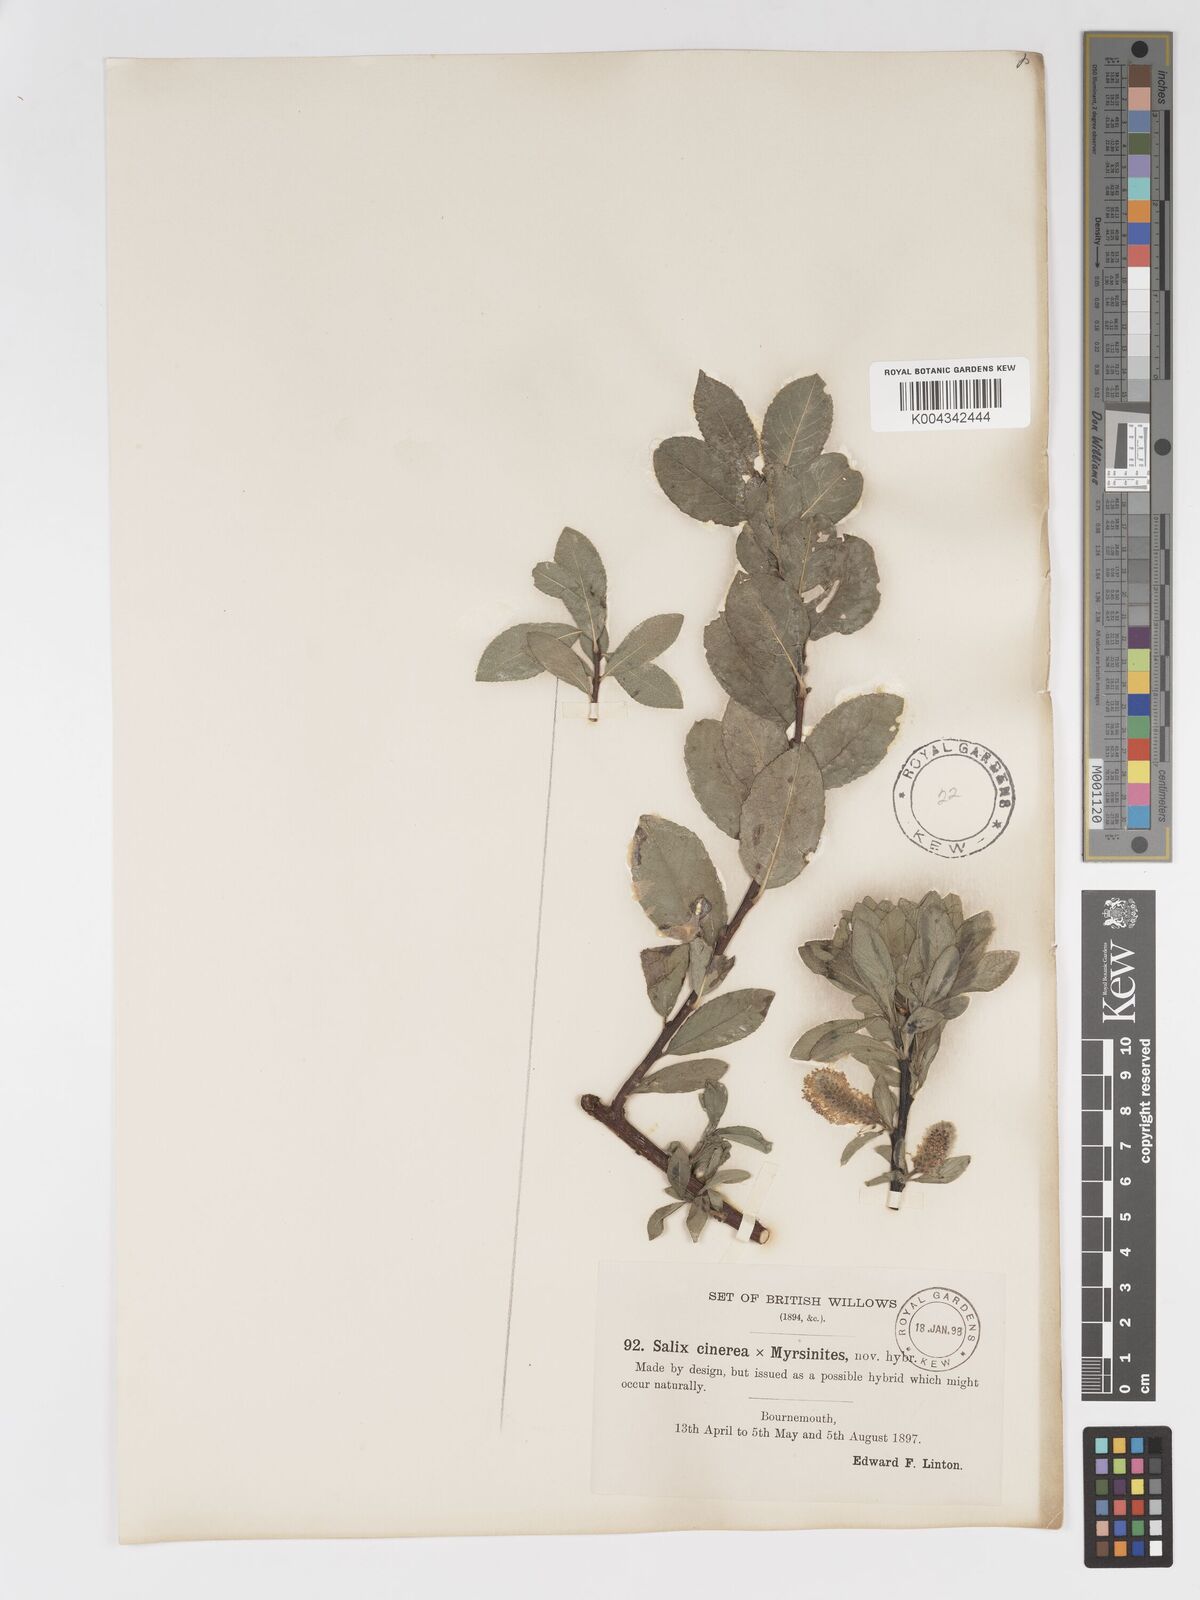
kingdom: Plantae
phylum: Tracheophyta
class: Magnoliopsida
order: Malpighiales
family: Salicaceae
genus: Salix
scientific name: Salix
